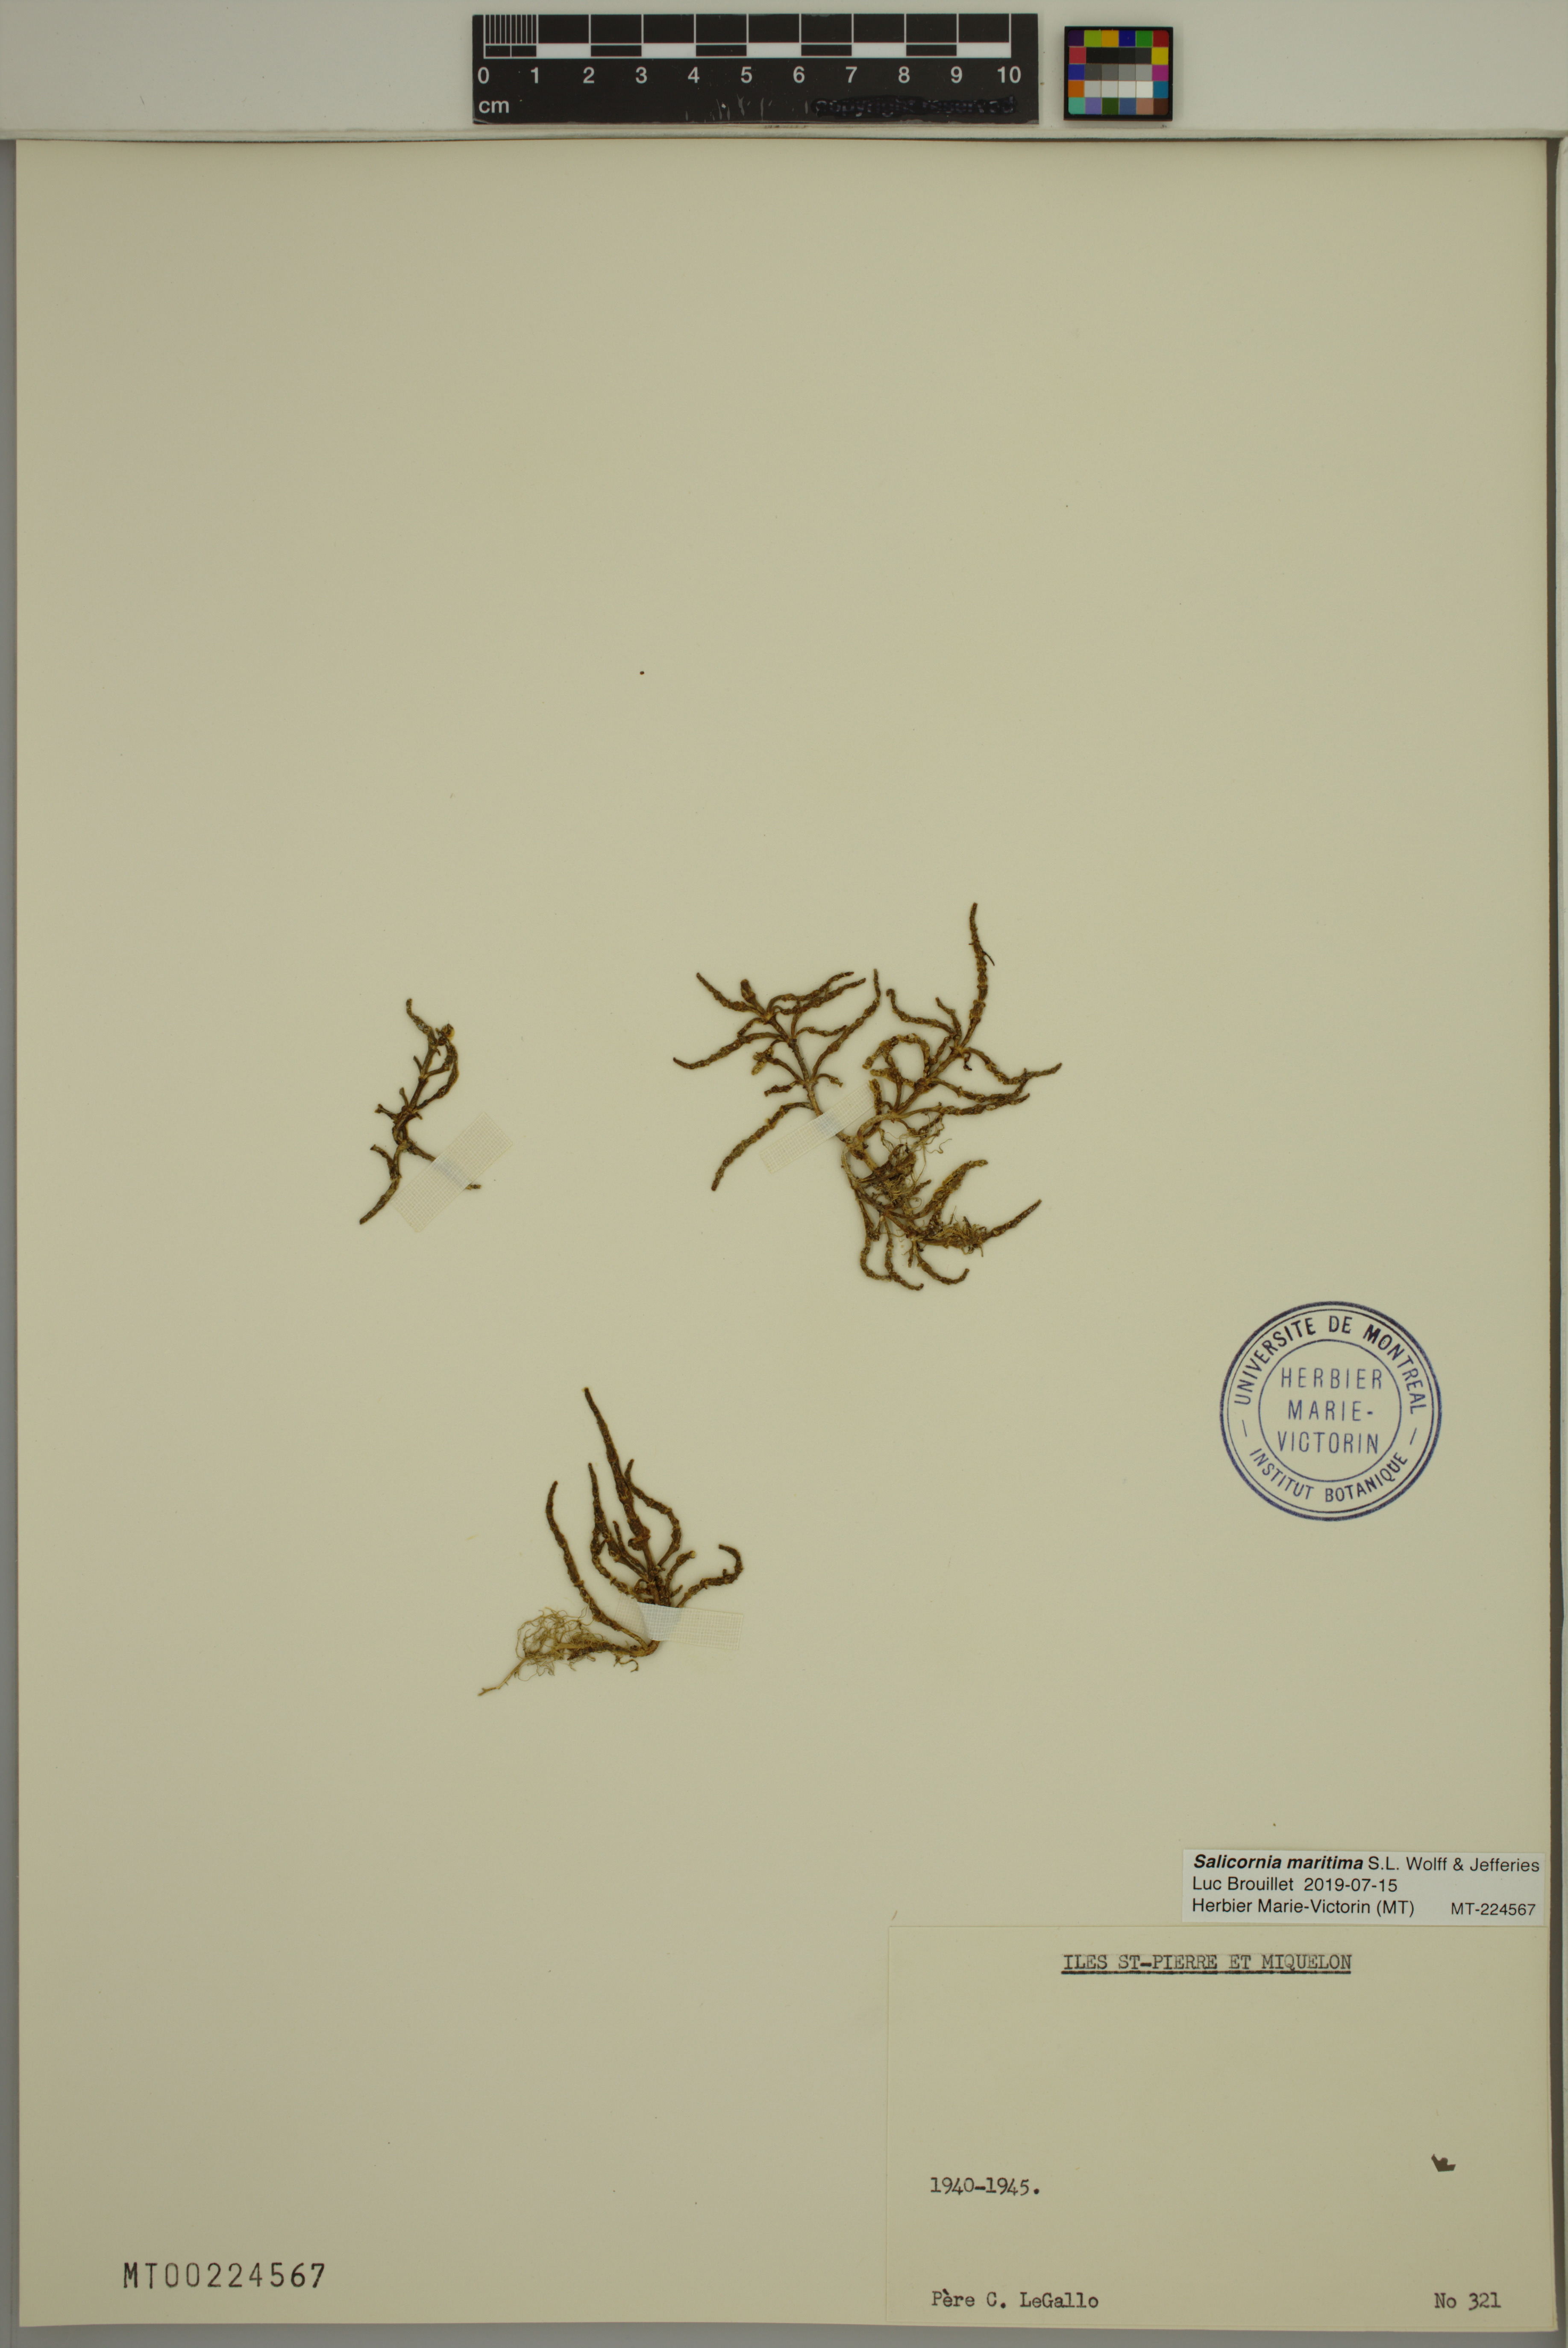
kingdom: Plantae
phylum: Tracheophyta
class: Magnoliopsida
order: Caryophyllales
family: Amaranthaceae
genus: Salicornia
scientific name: Salicornia maritima
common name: Jointed glasswort
